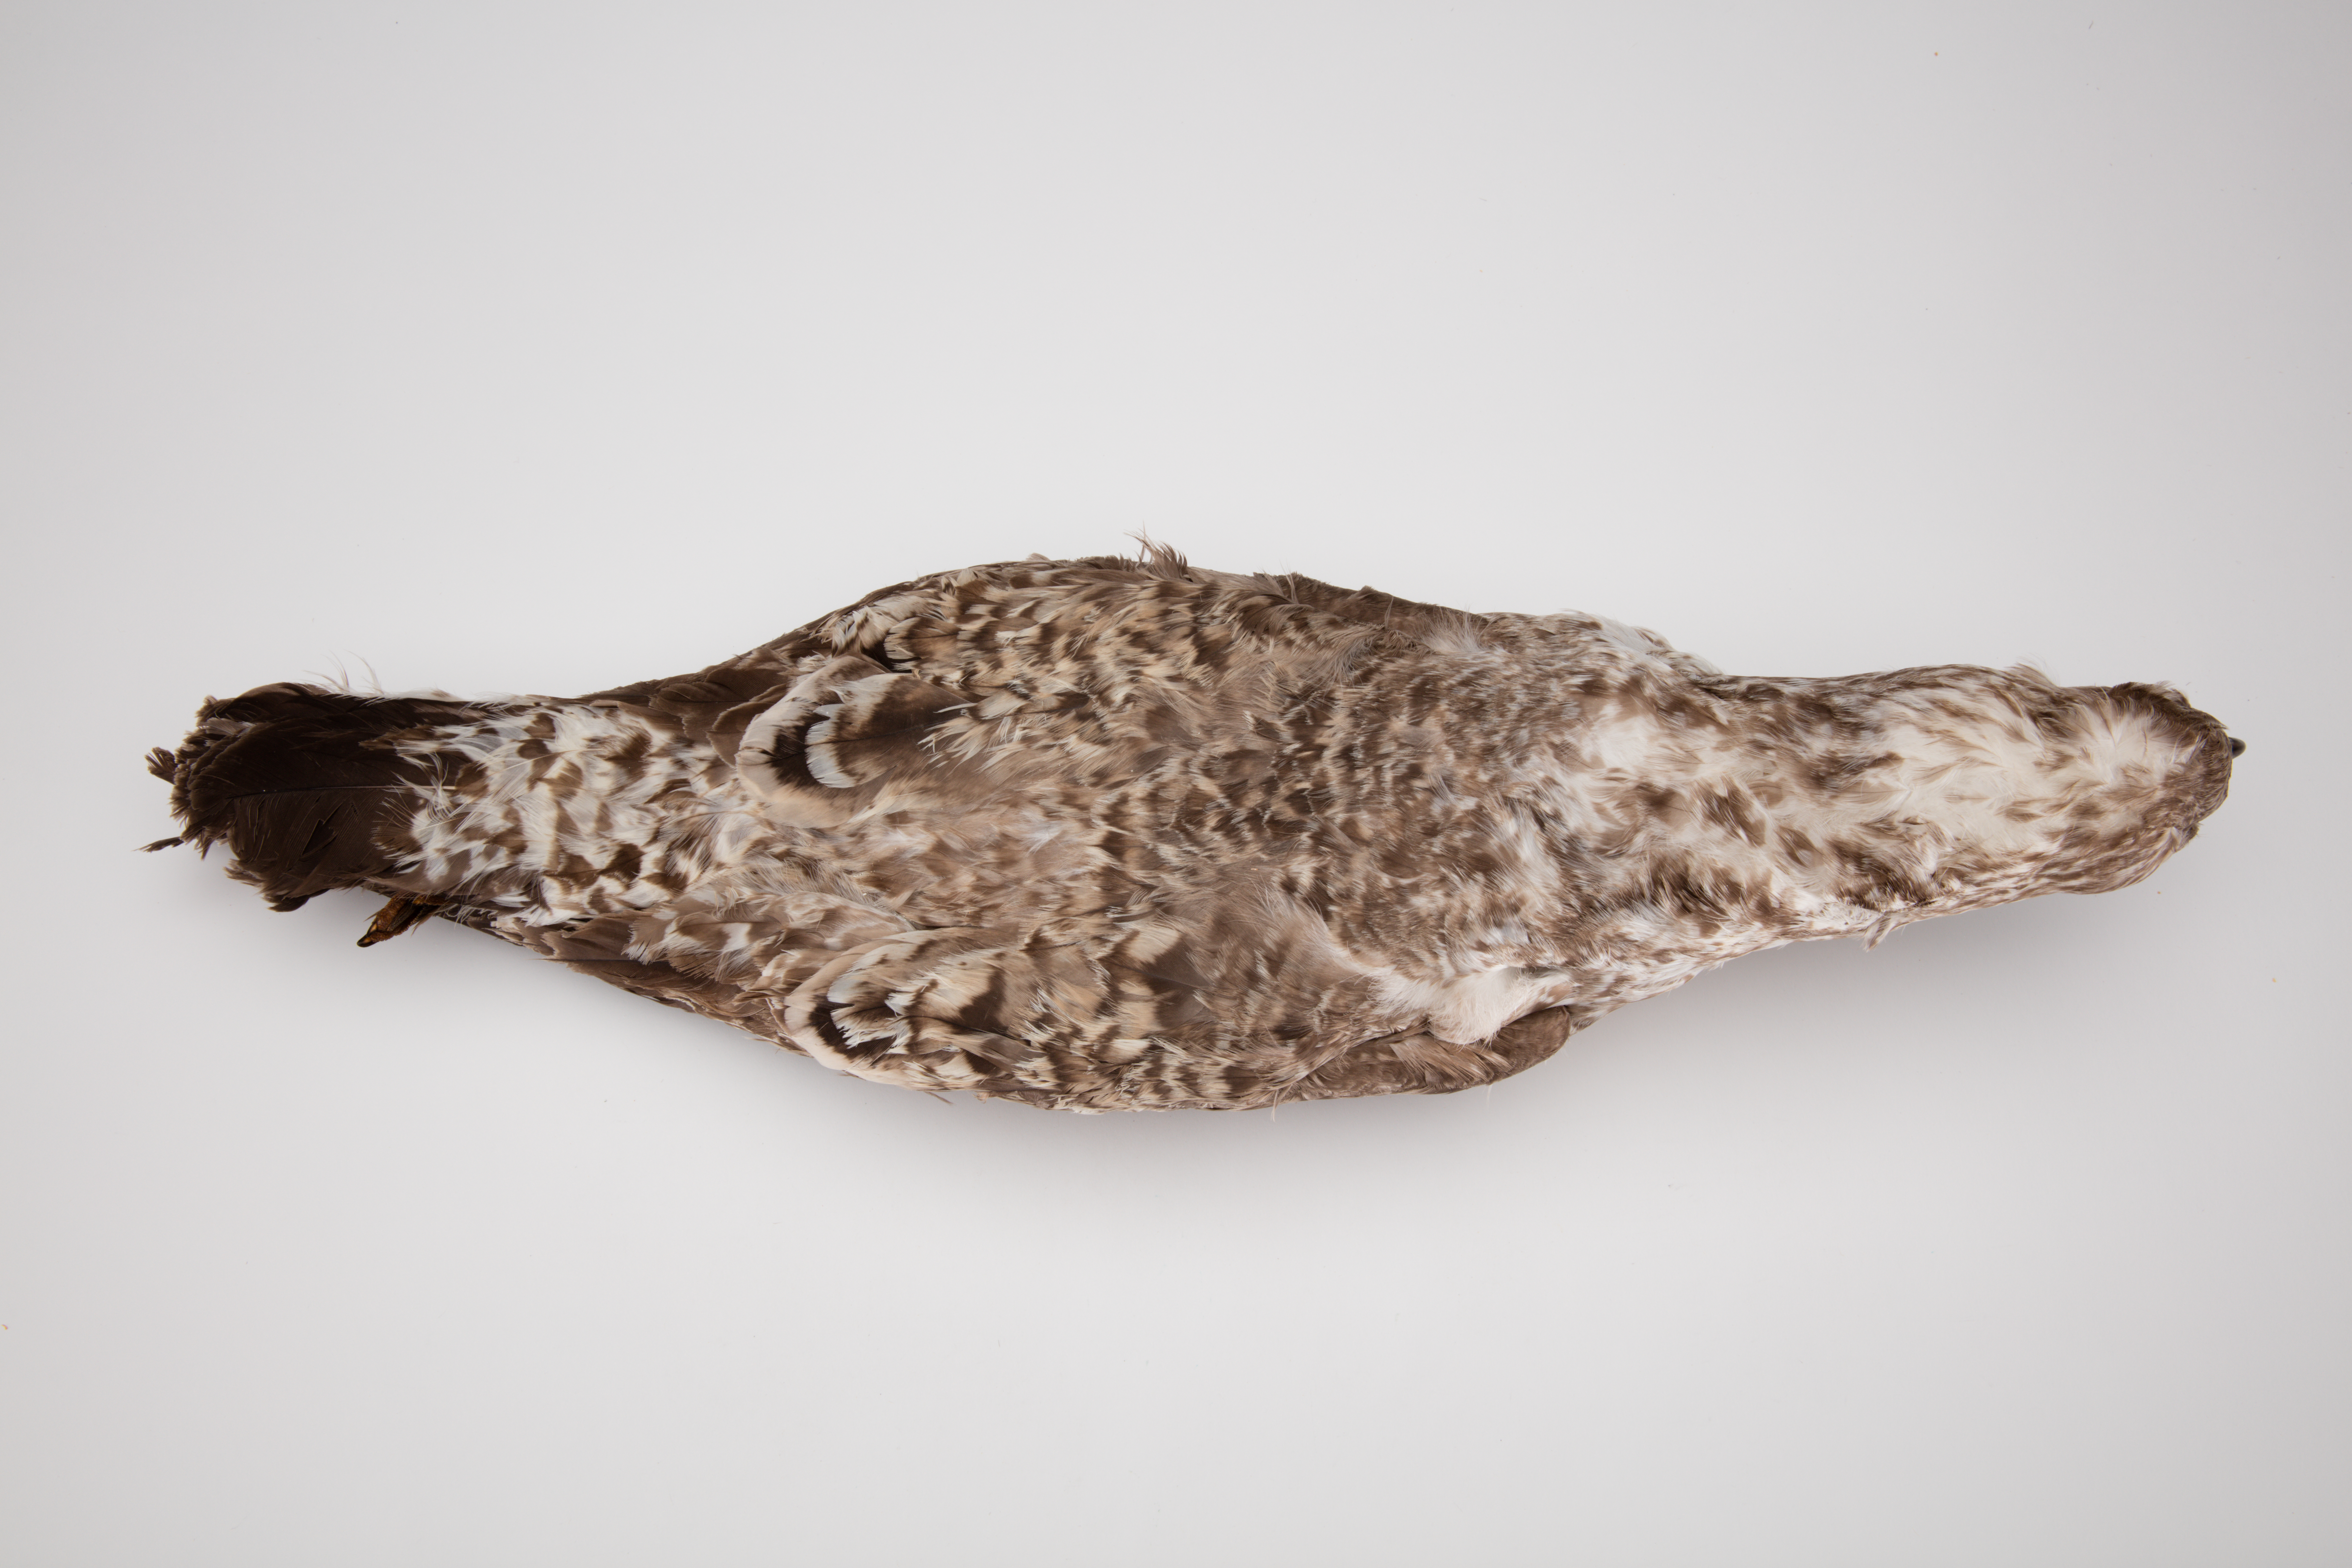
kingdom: Animalia
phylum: Chordata
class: Aves
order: Charadriiformes
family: Laridae
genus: Larus
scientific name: Larus dominicanus
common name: Kelp gull
